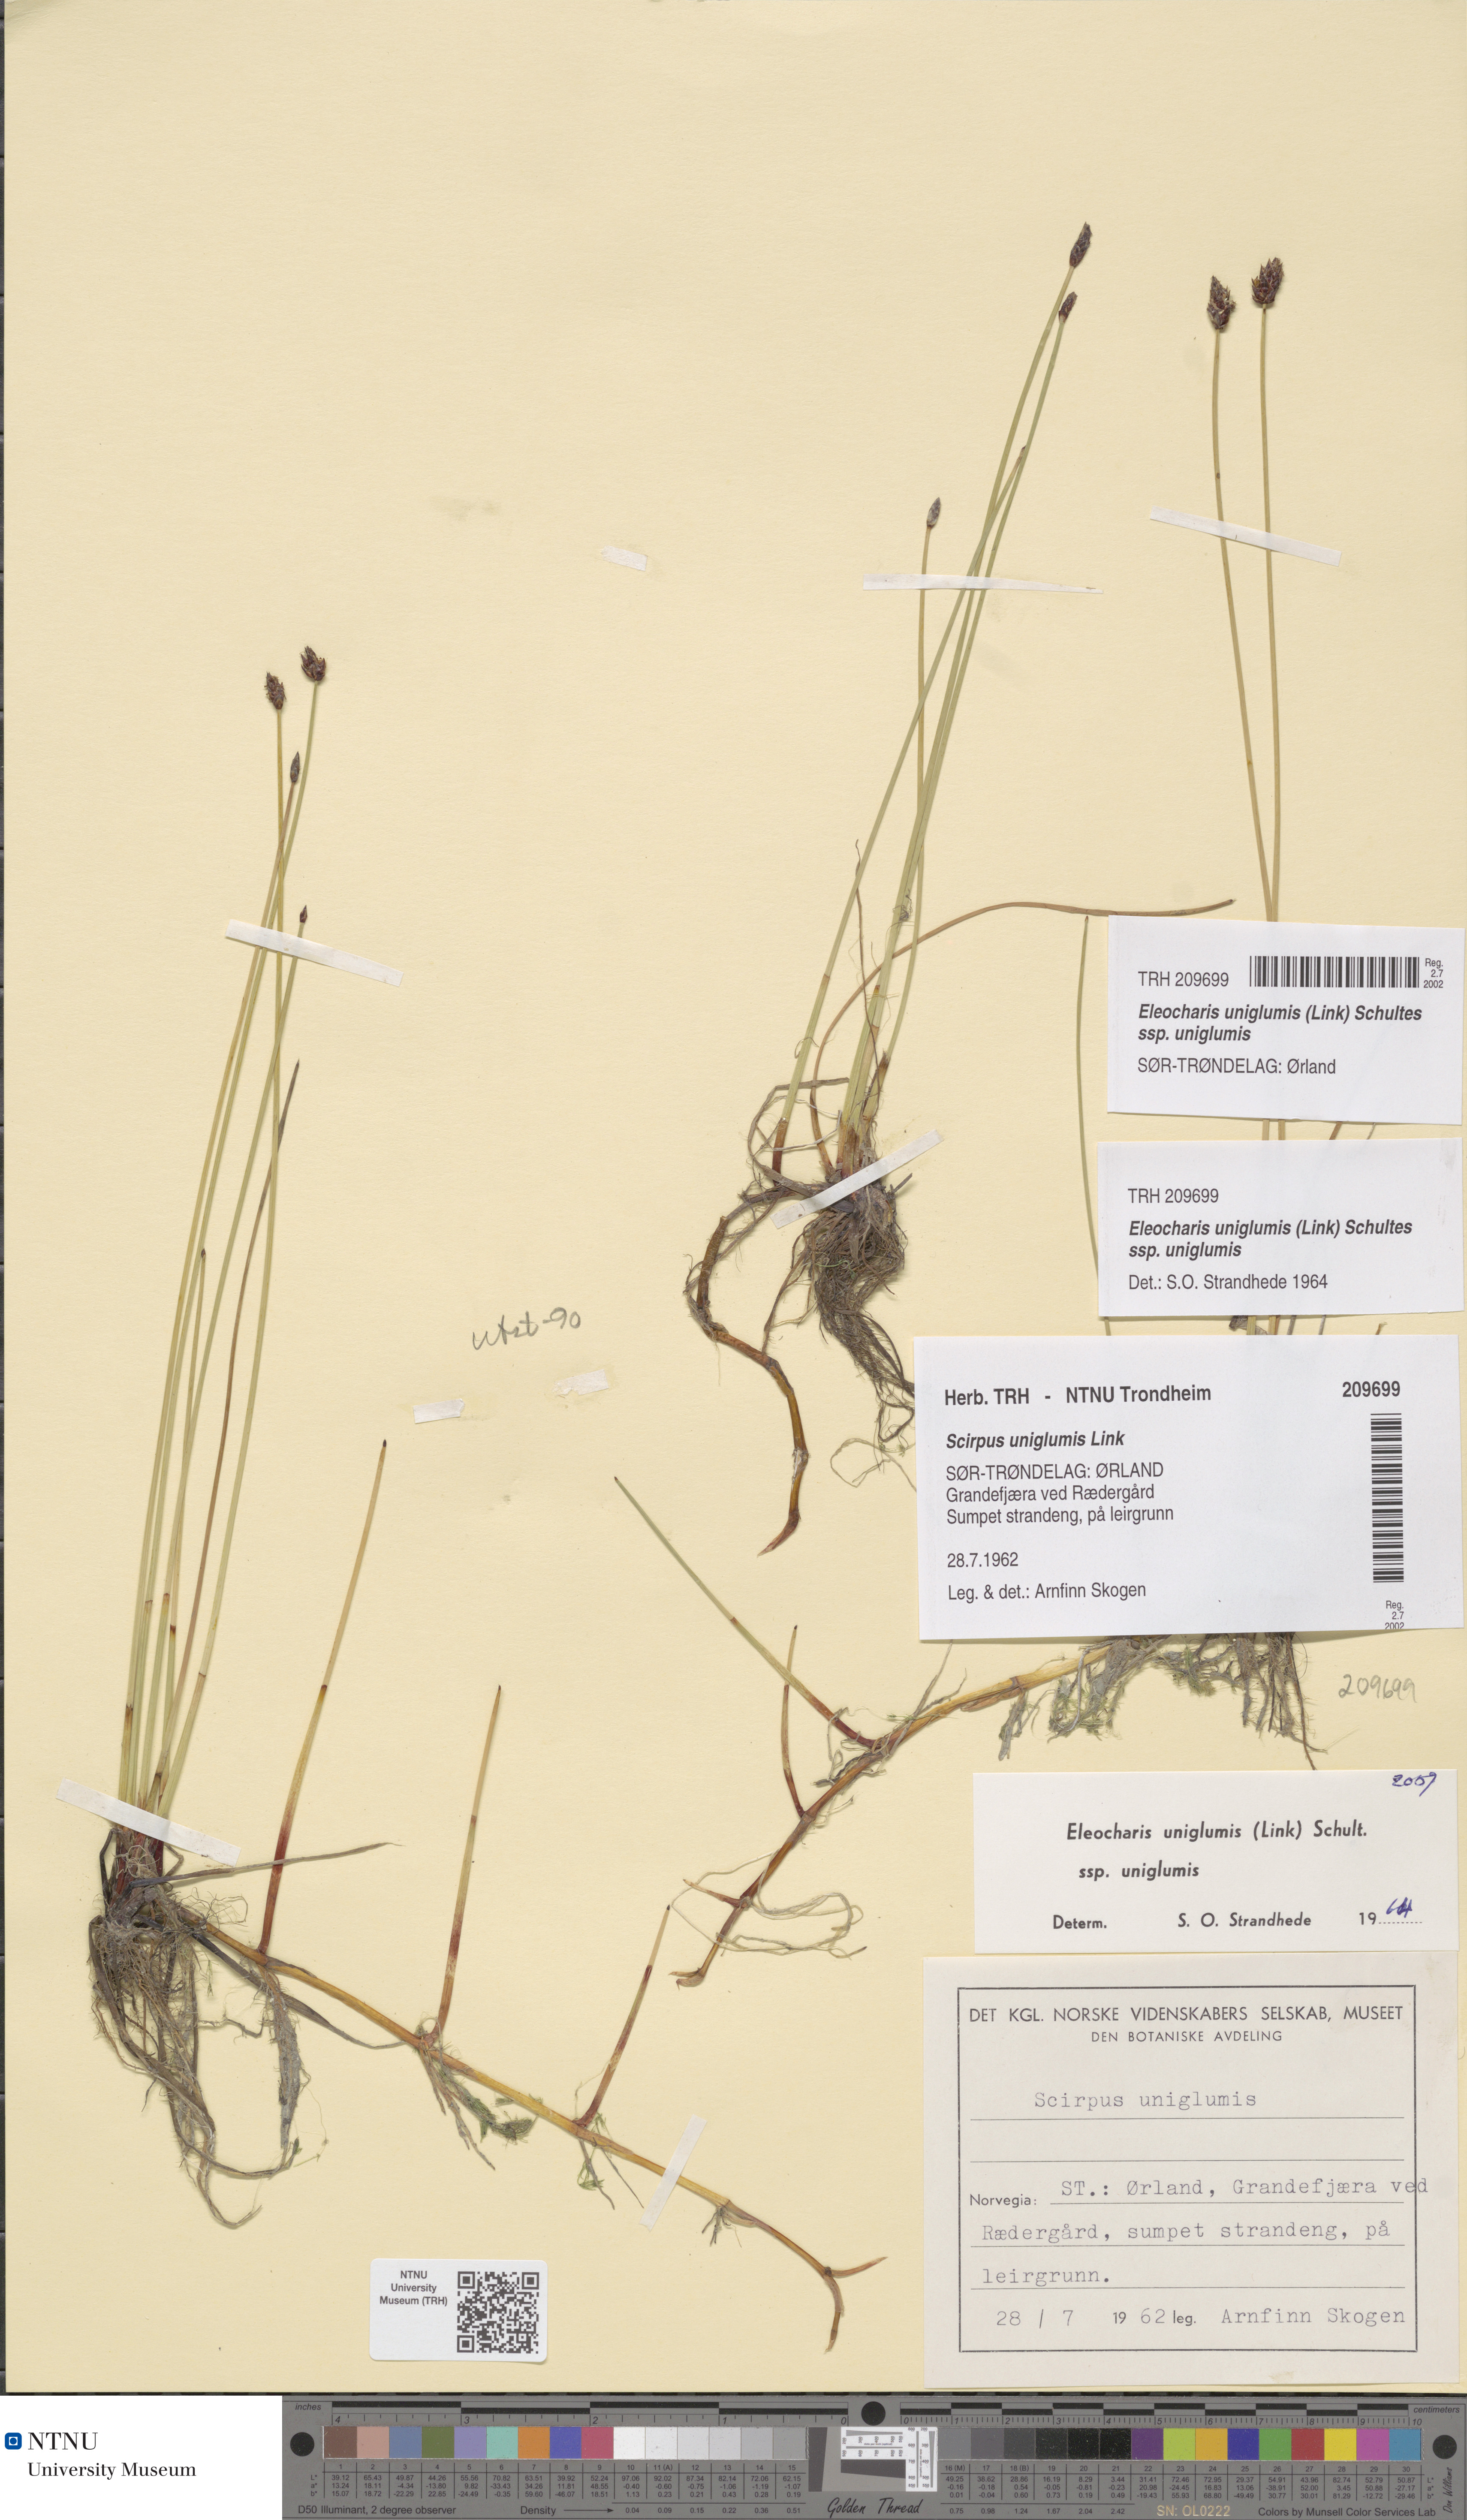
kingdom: Plantae
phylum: Tracheophyta
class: Liliopsida
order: Poales
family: Cyperaceae
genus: Eleocharis
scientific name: Eleocharis uniglumis
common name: Slender spike-rush
